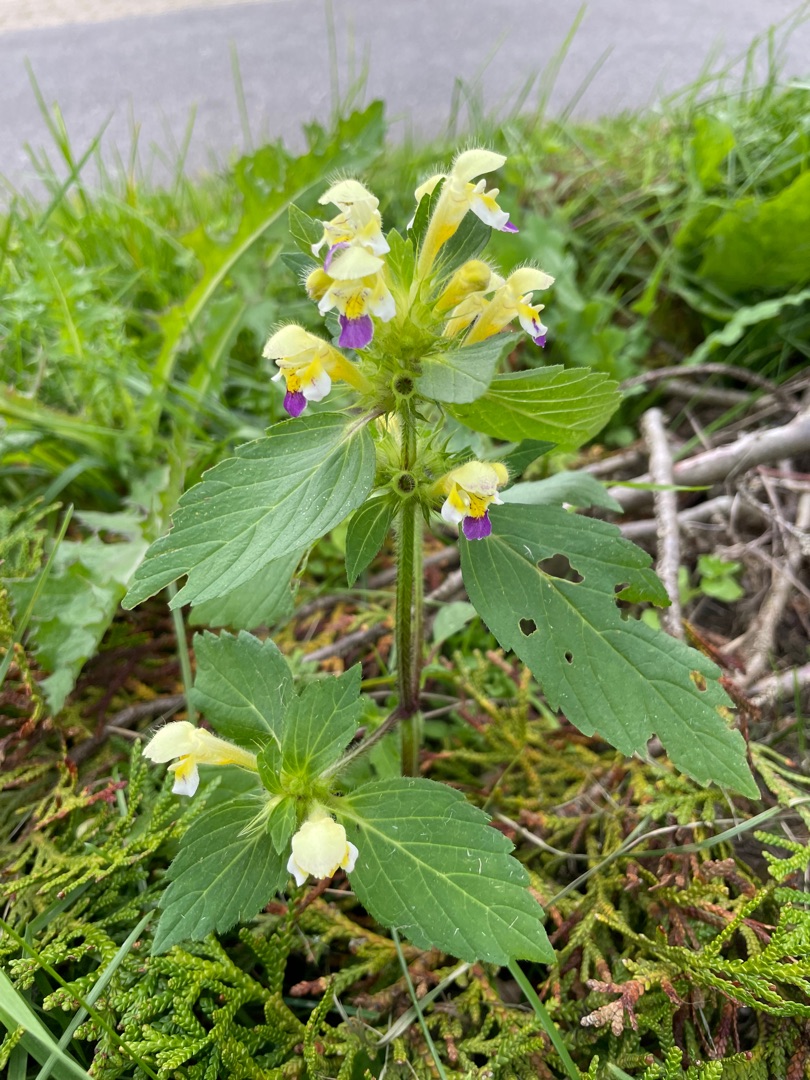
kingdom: Plantae
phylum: Tracheophyta
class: Magnoliopsida
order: Lamiales
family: Lamiaceae
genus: Galeopsis
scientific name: Galeopsis speciosa
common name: Hamp-hanekro
